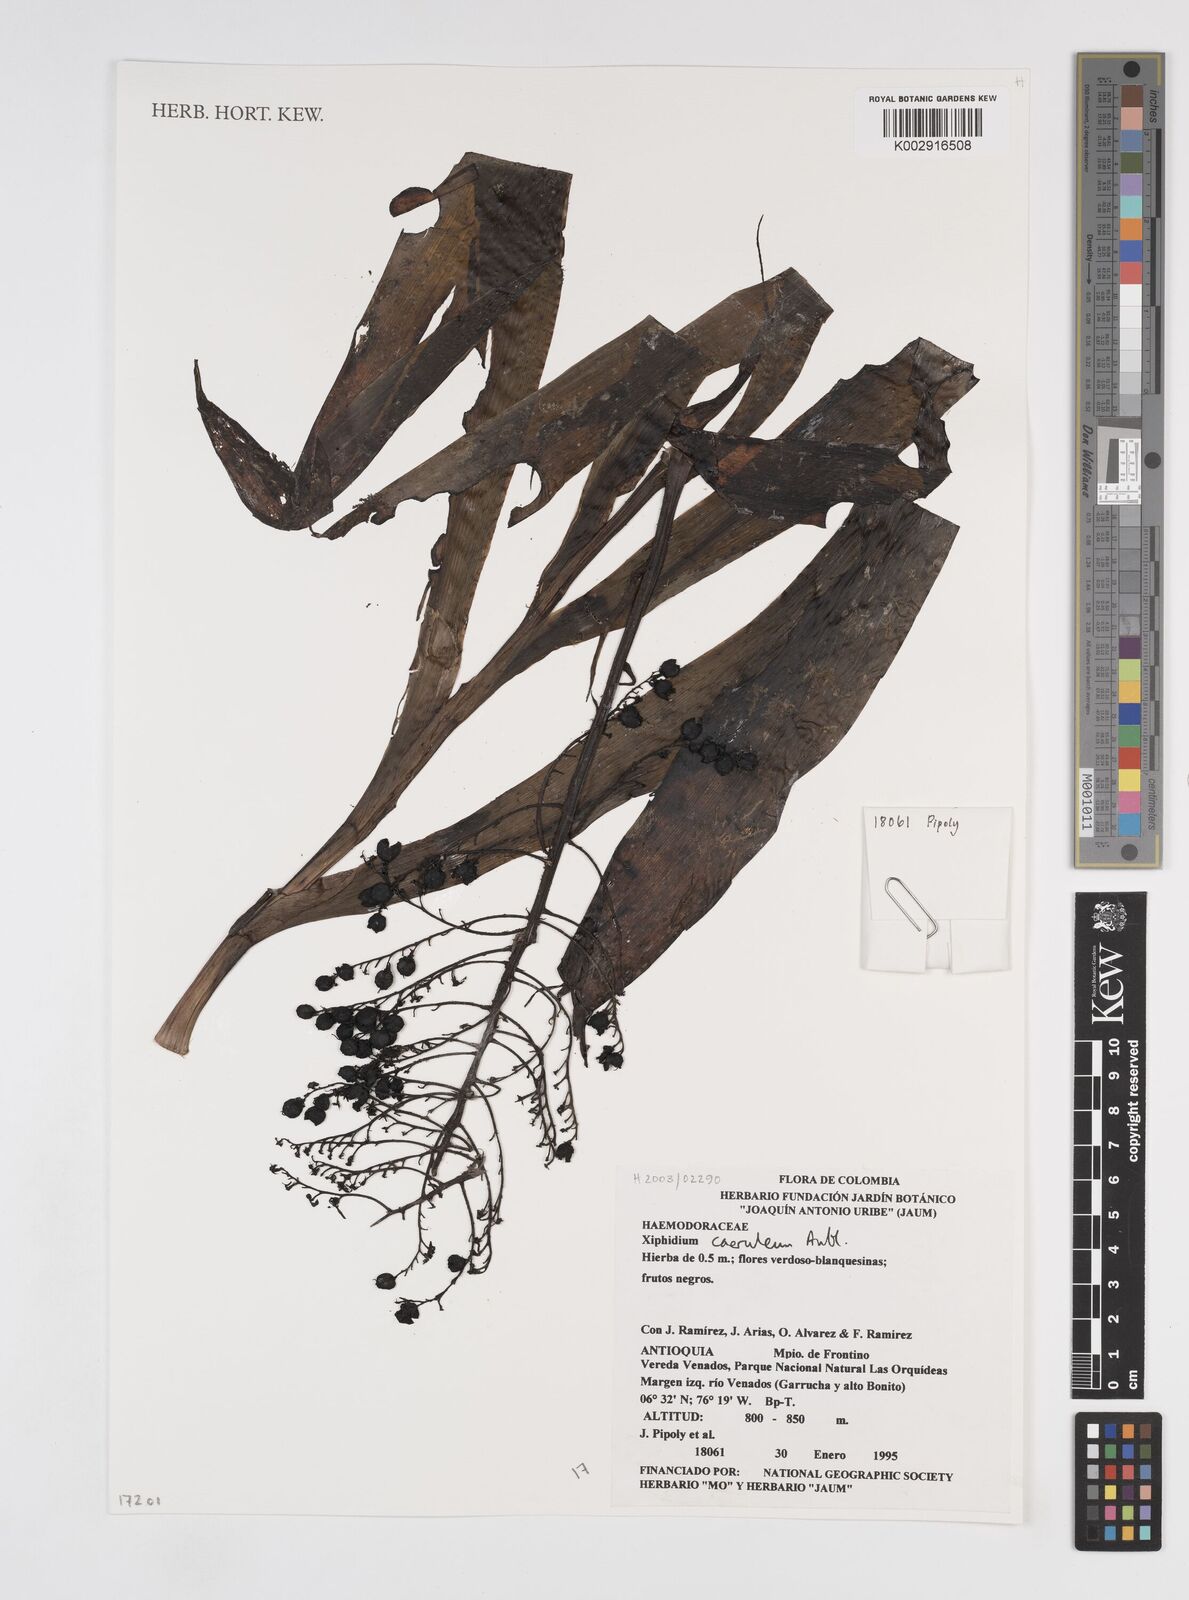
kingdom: Plantae
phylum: Tracheophyta
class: Liliopsida
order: Commelinales
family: Haemodoraceae
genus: Xiphidium
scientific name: Xiphidium caeruleum
